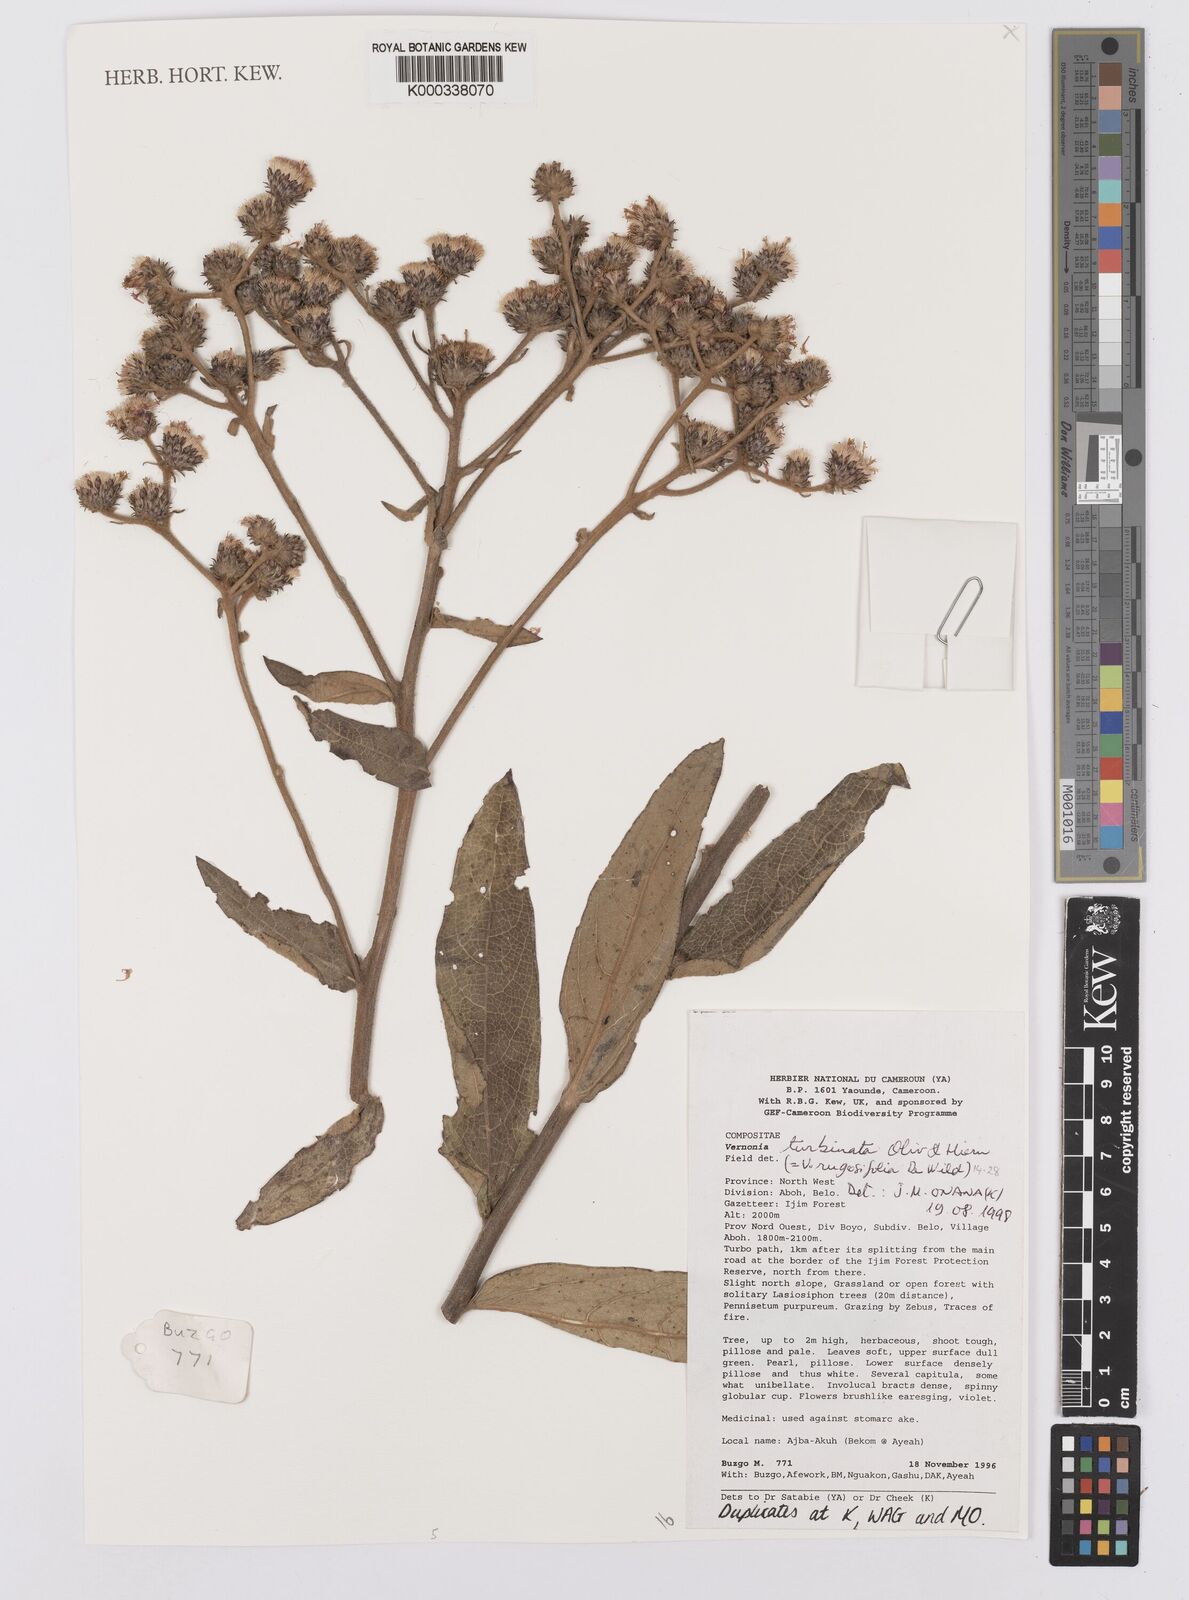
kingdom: Plantae
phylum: Tracheophyta
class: Magnoliopsida
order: Asterales
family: Asteraceae
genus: Orbivestus
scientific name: Orbivestus turbinata
